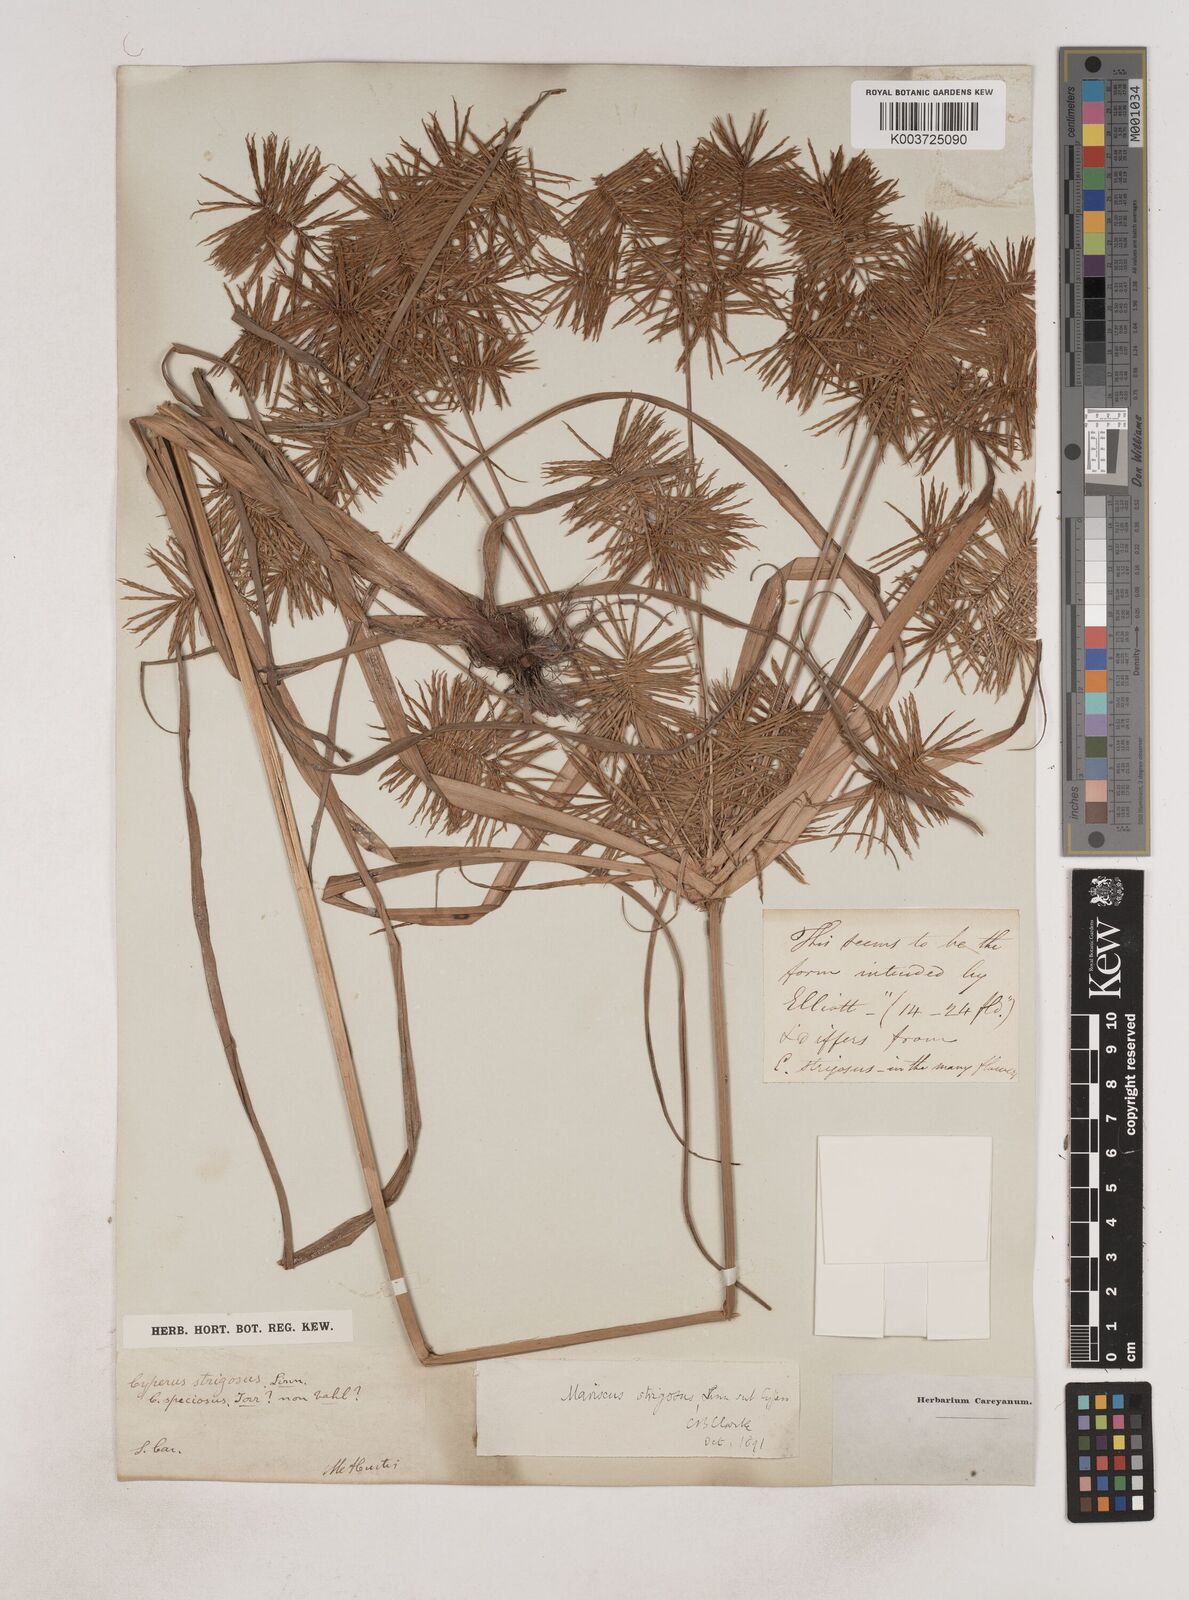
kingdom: Plantae
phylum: Tracheophyta
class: Liliopsida
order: Poales
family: Cyperaceae
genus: Cyperus
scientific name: Cyperus strigosus
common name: False nutsedge
